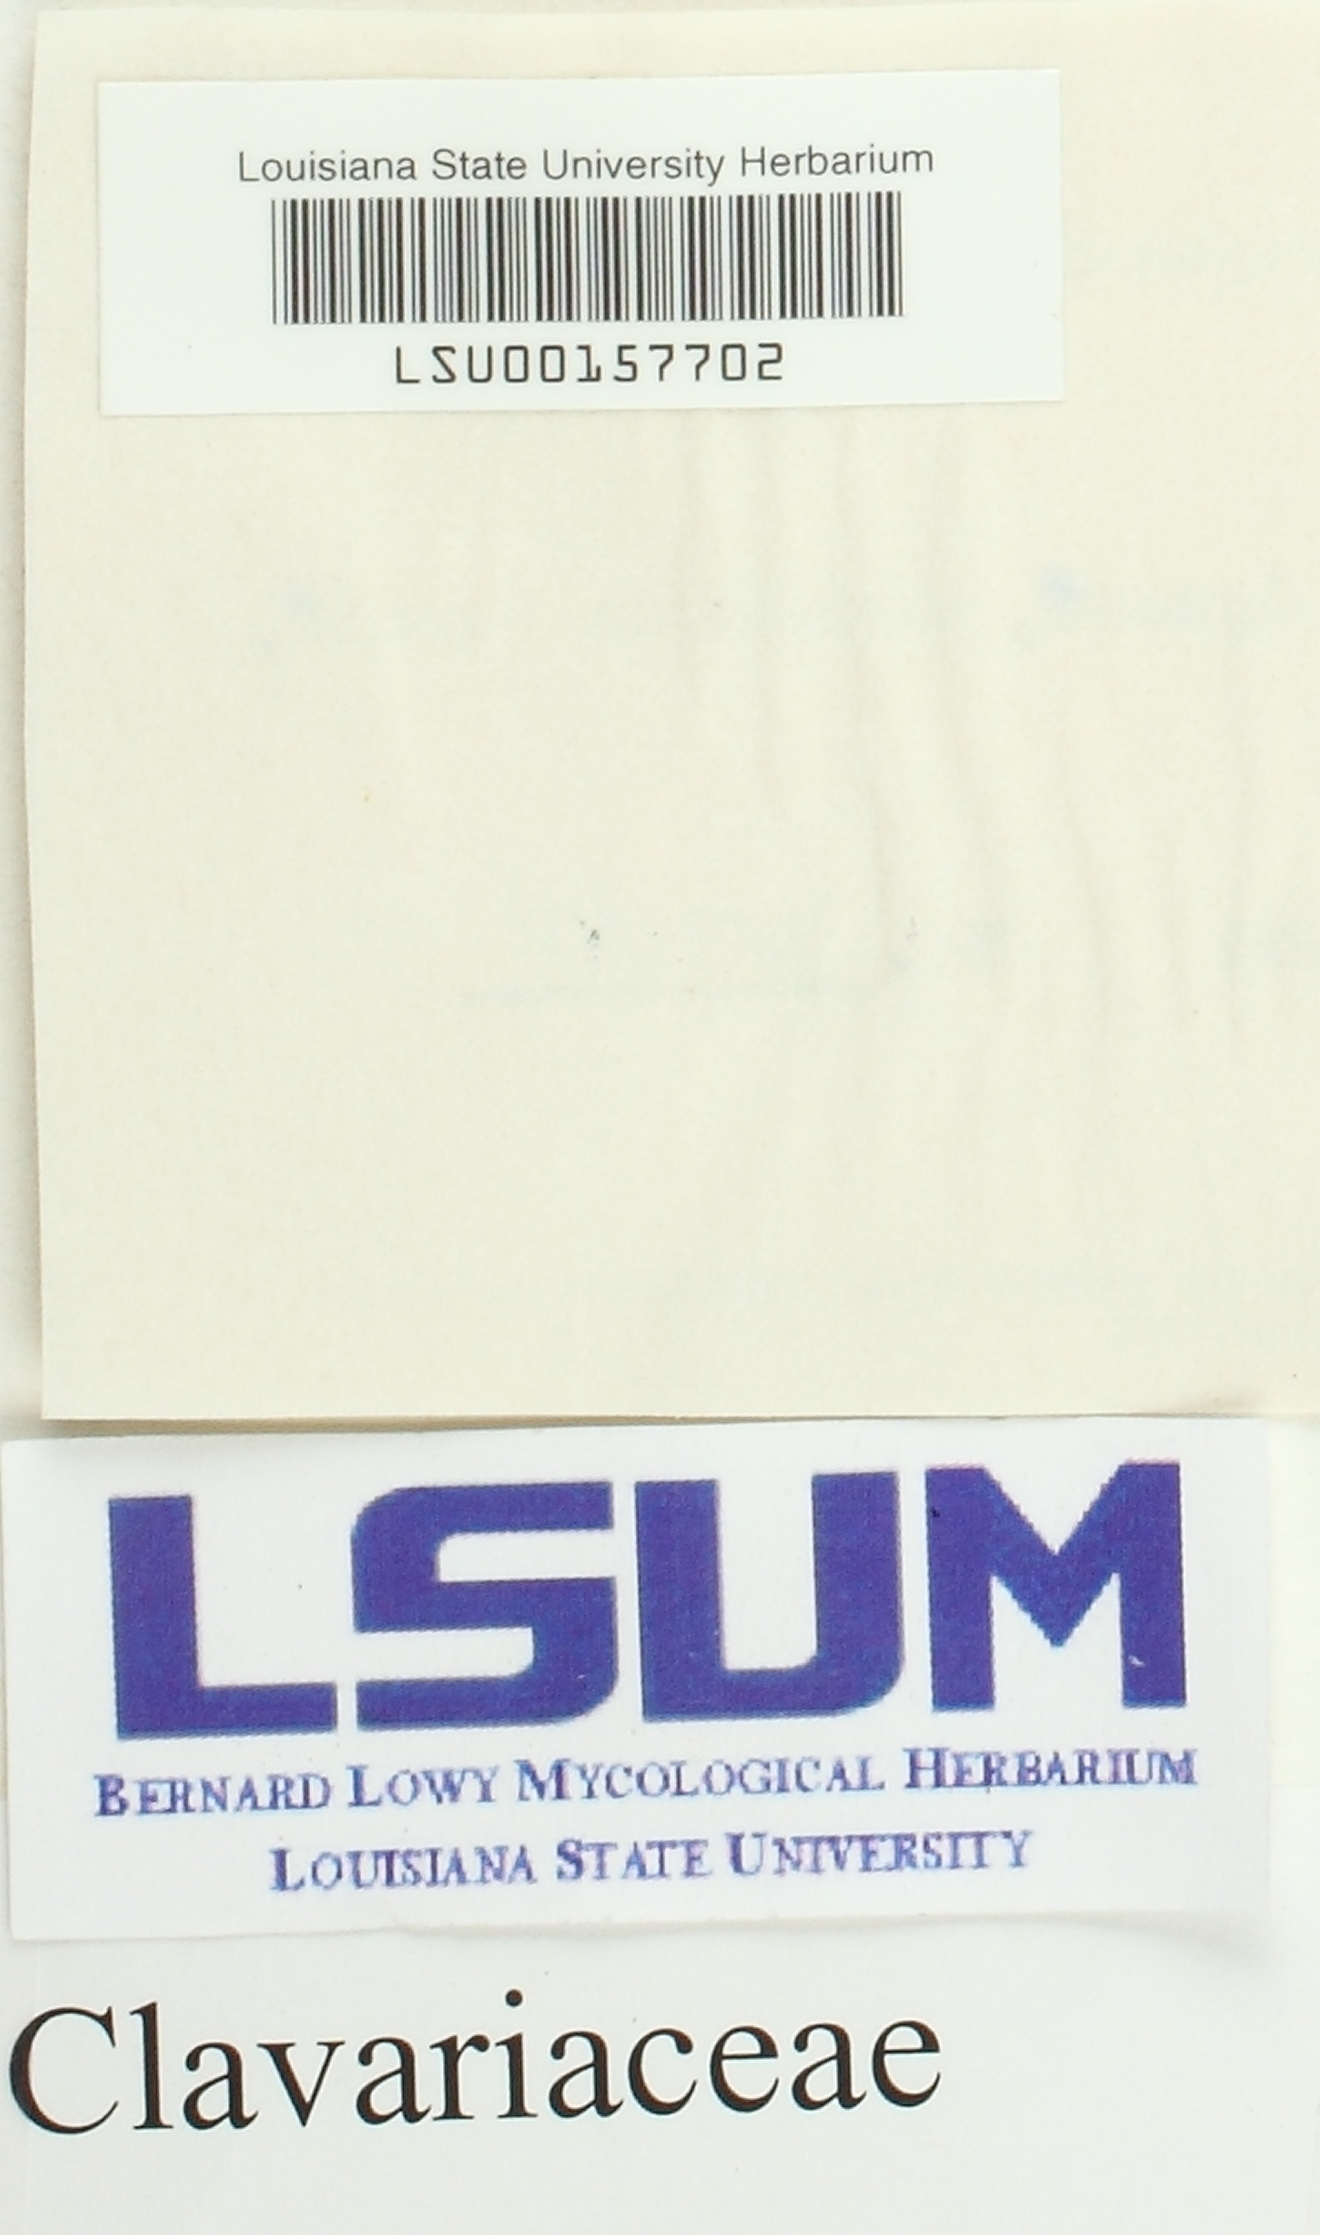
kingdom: Fungi
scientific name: Fungi
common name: Fungi
